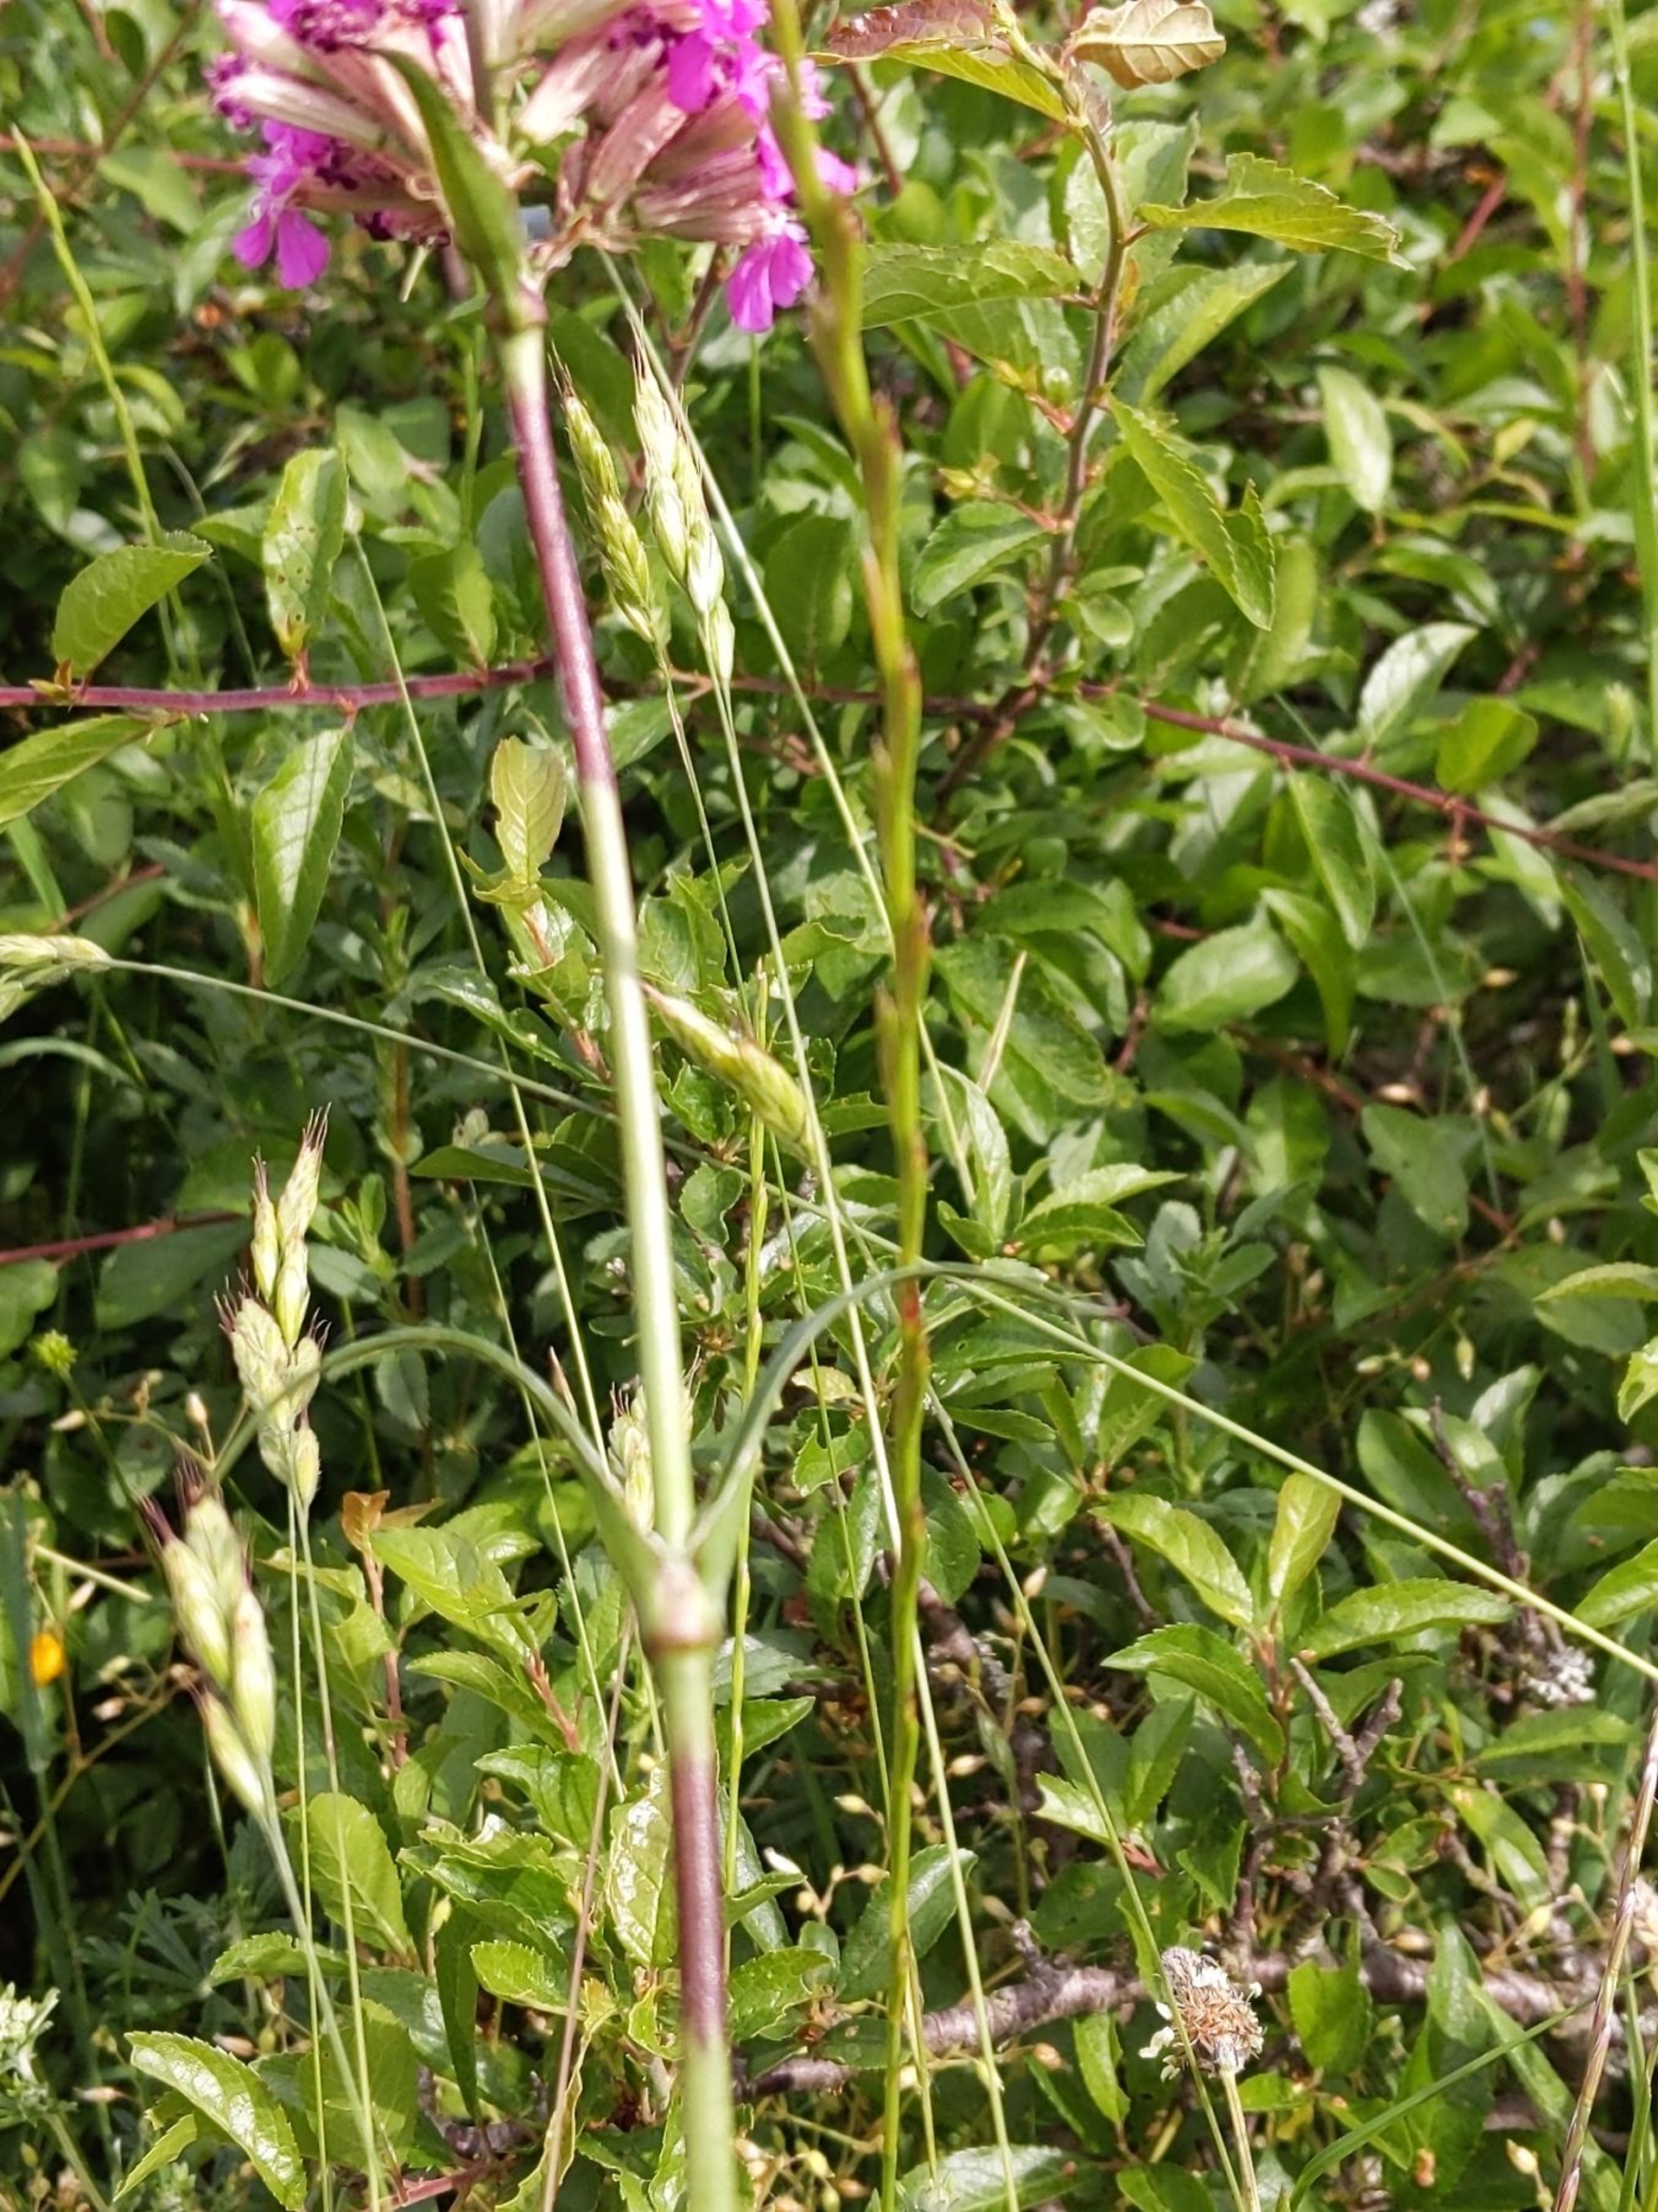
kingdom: Plantae
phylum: Tracheophyta
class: Magnoliopsida
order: Caryophyllales
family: Caryophyllaceae
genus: Viscaria
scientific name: Viscaria vulgaris
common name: Tjærenellike
